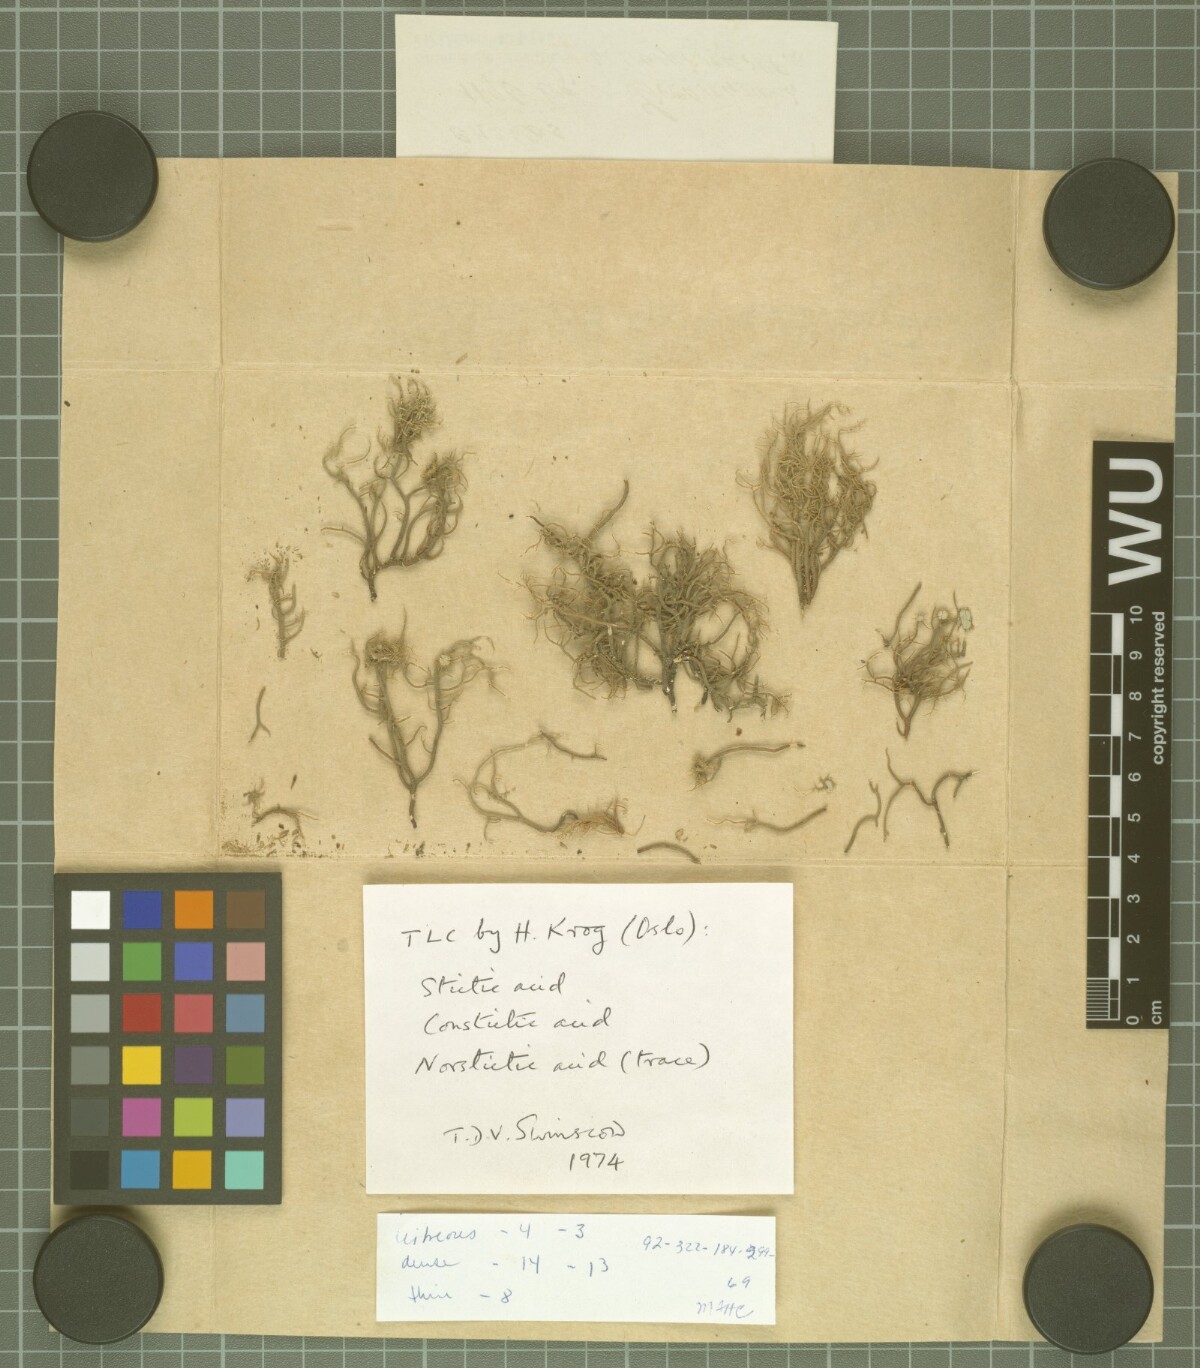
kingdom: Fungi
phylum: Ascomycota
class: Lecanoromycetes
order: Lecanorales
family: Parmeliaceae
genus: Usnea
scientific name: Usnea perhispidella
